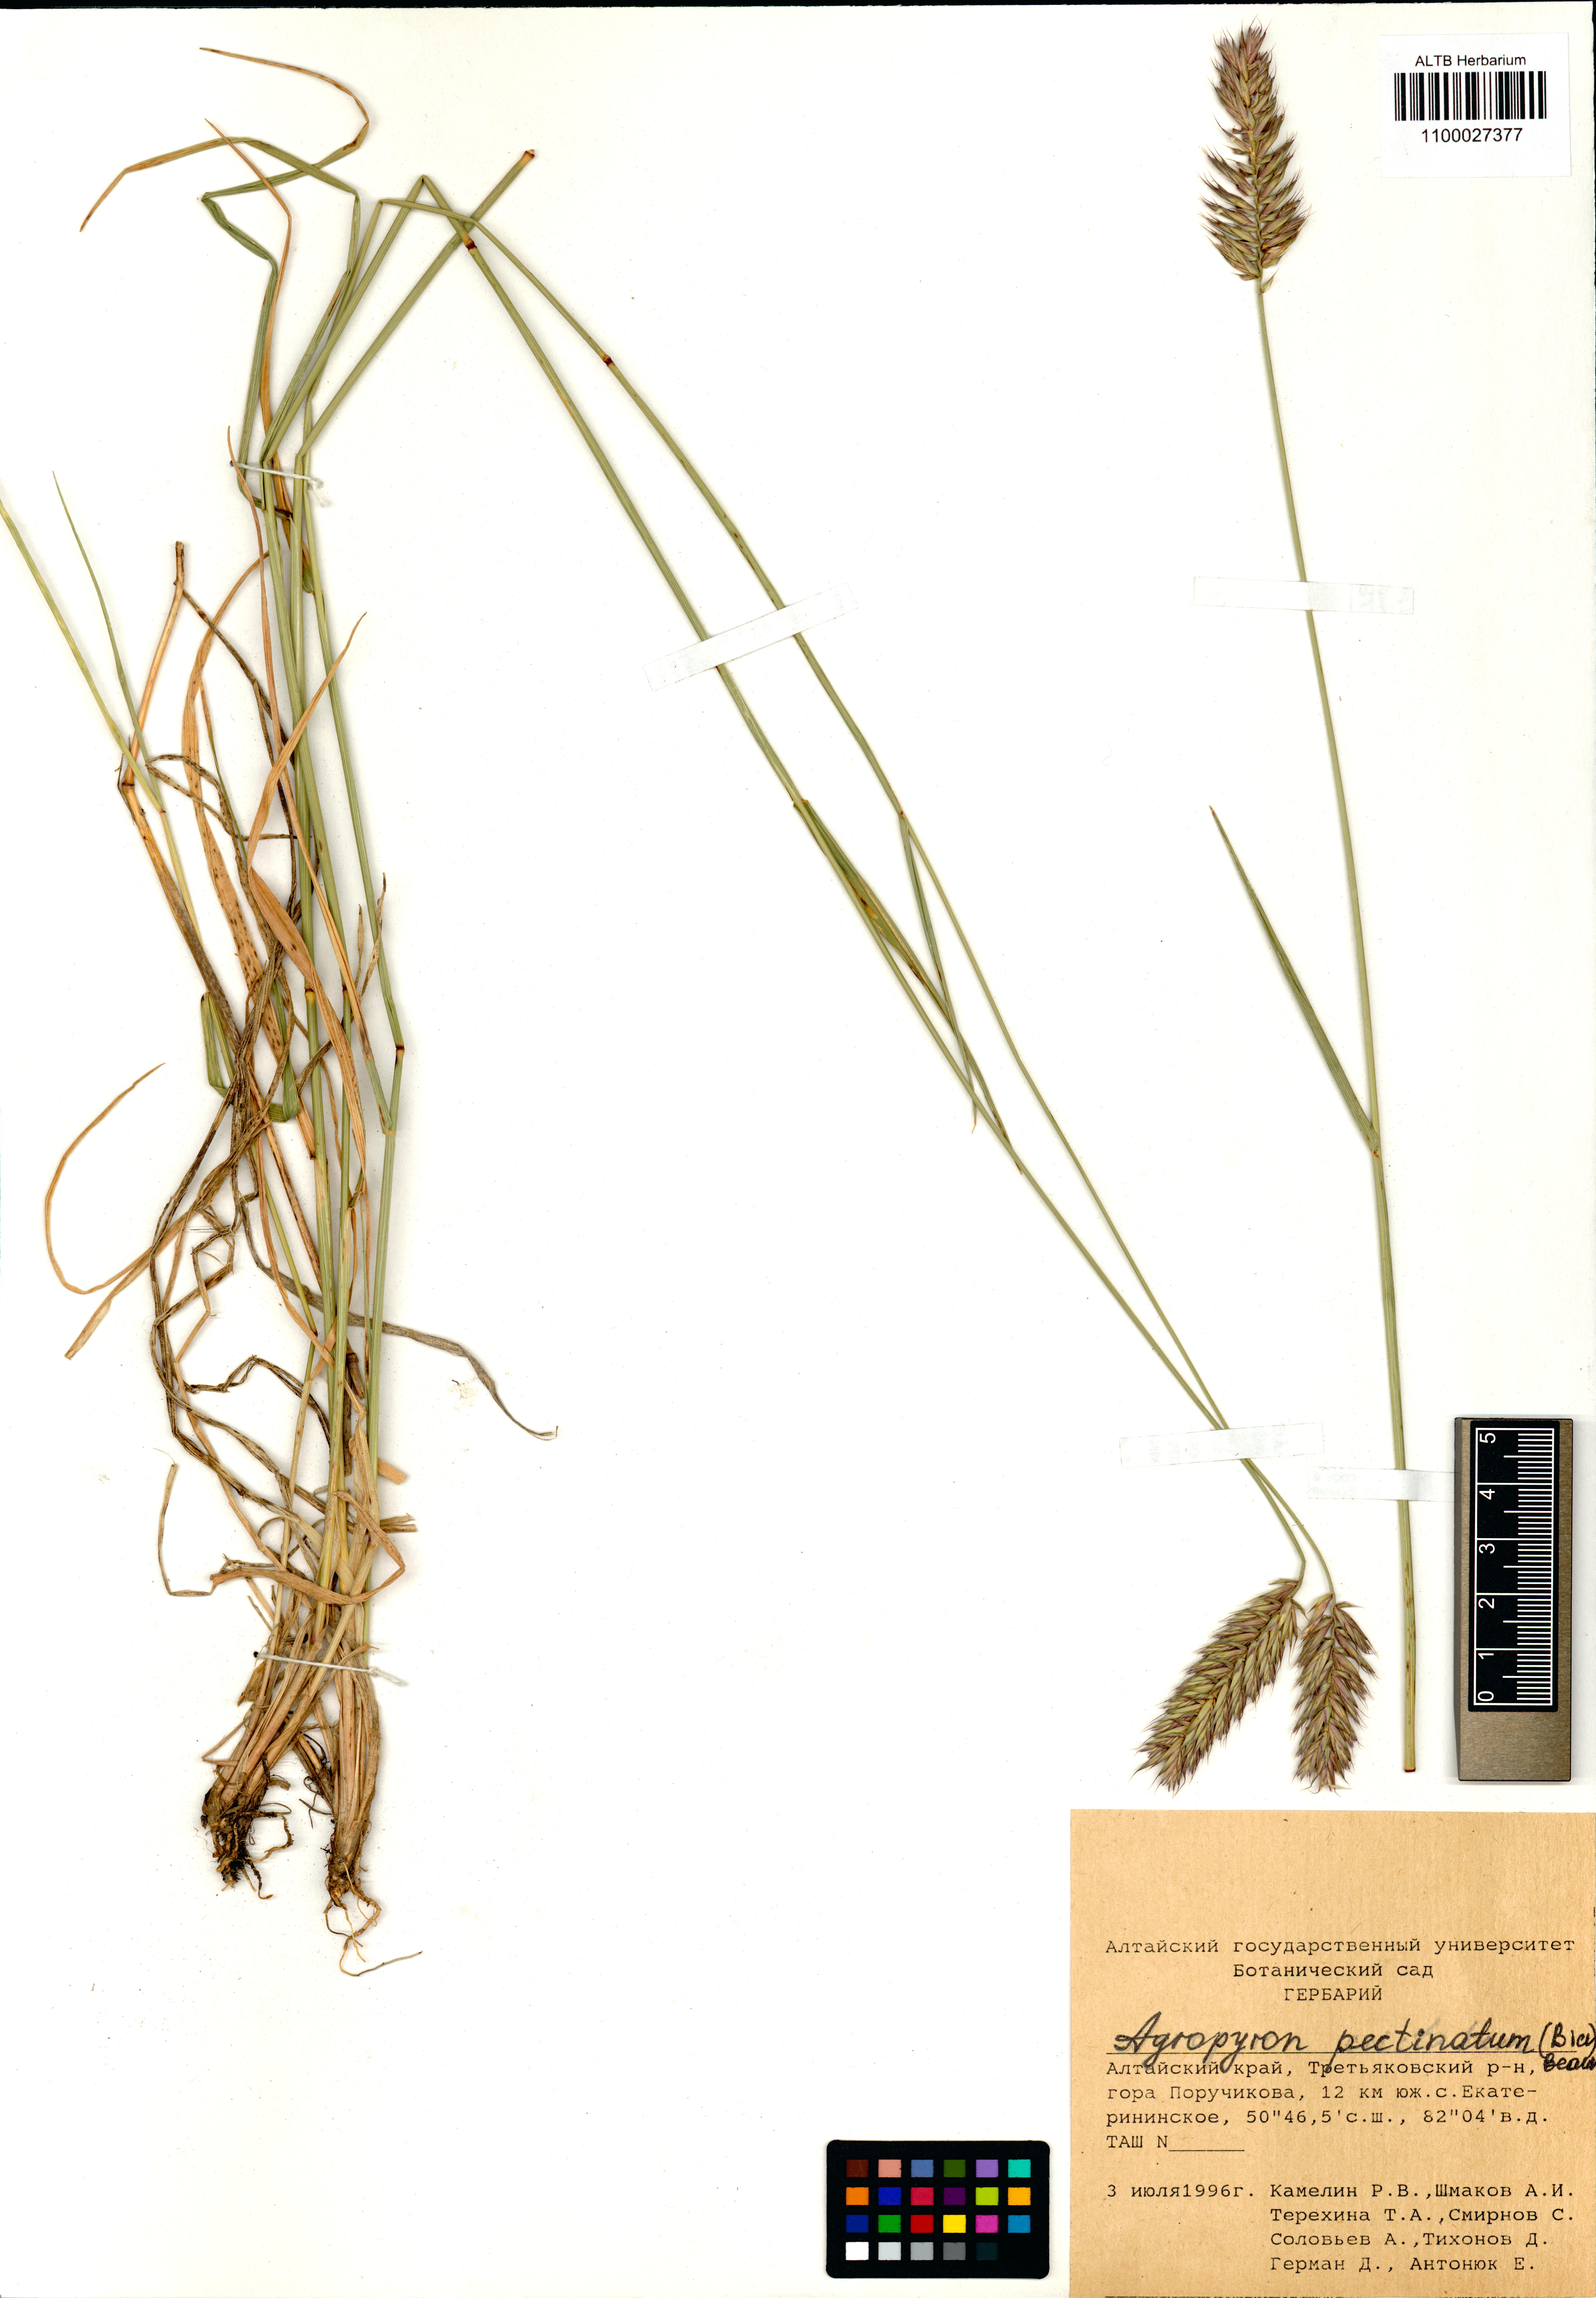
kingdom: Plantae
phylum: Tracheophyta
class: Liliopsida
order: Poales
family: Poaceae
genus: Agropyron
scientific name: Agropyron cristatum
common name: Crested wheatgrass
